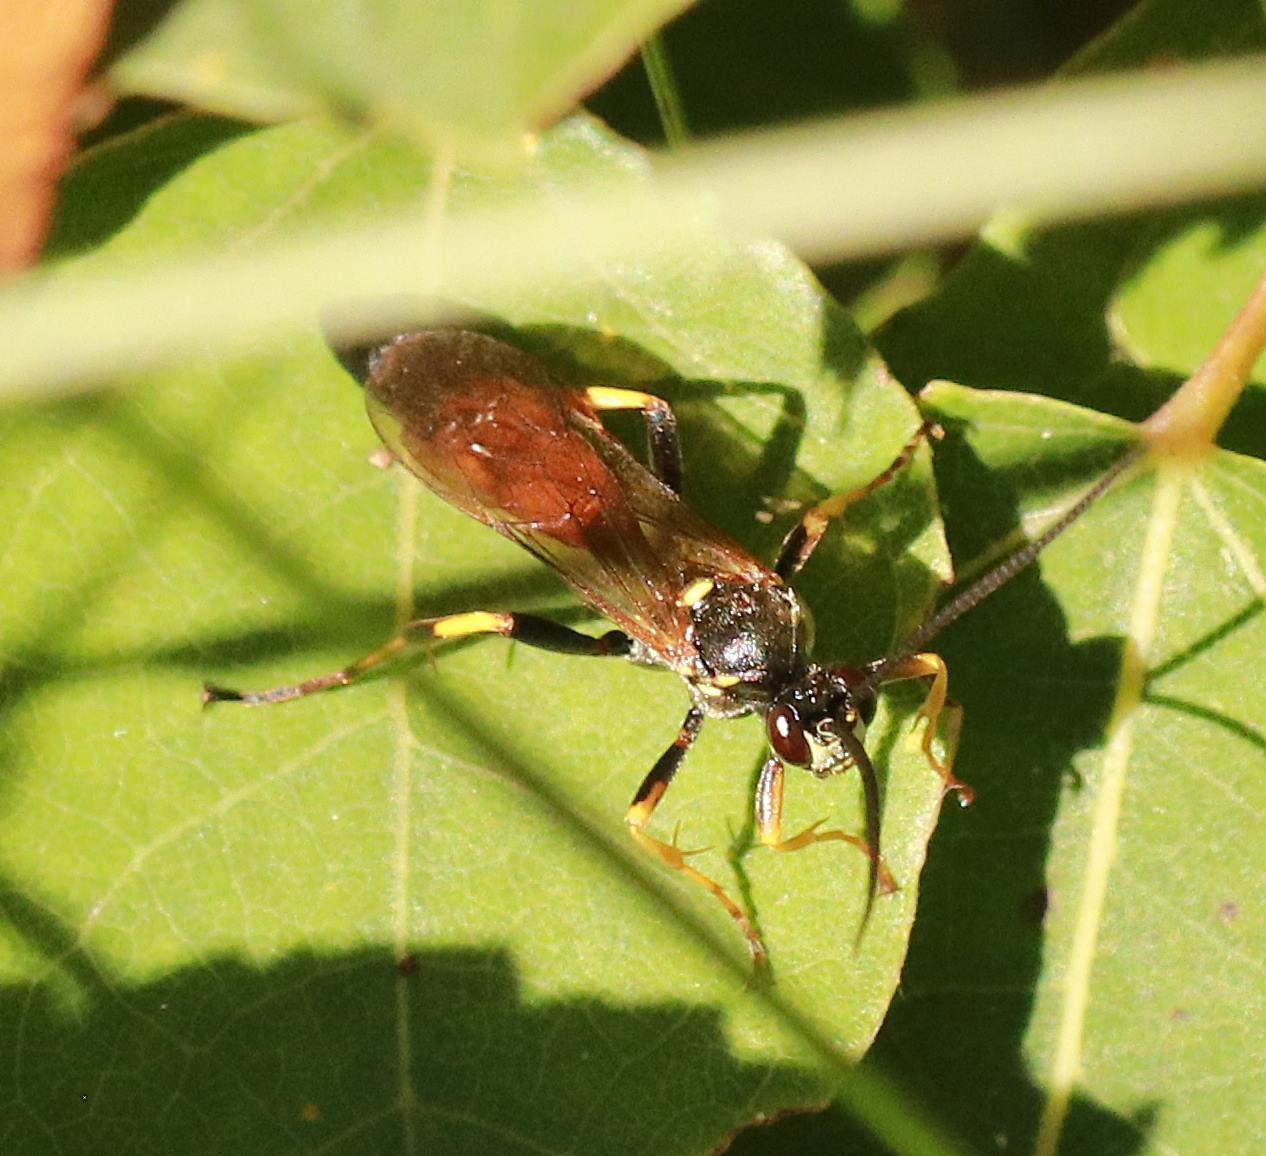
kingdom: Animalia
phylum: Arthropoda
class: Insecta
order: Hymenoptera
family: Ichneumonidae
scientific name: Ichneumonidae
